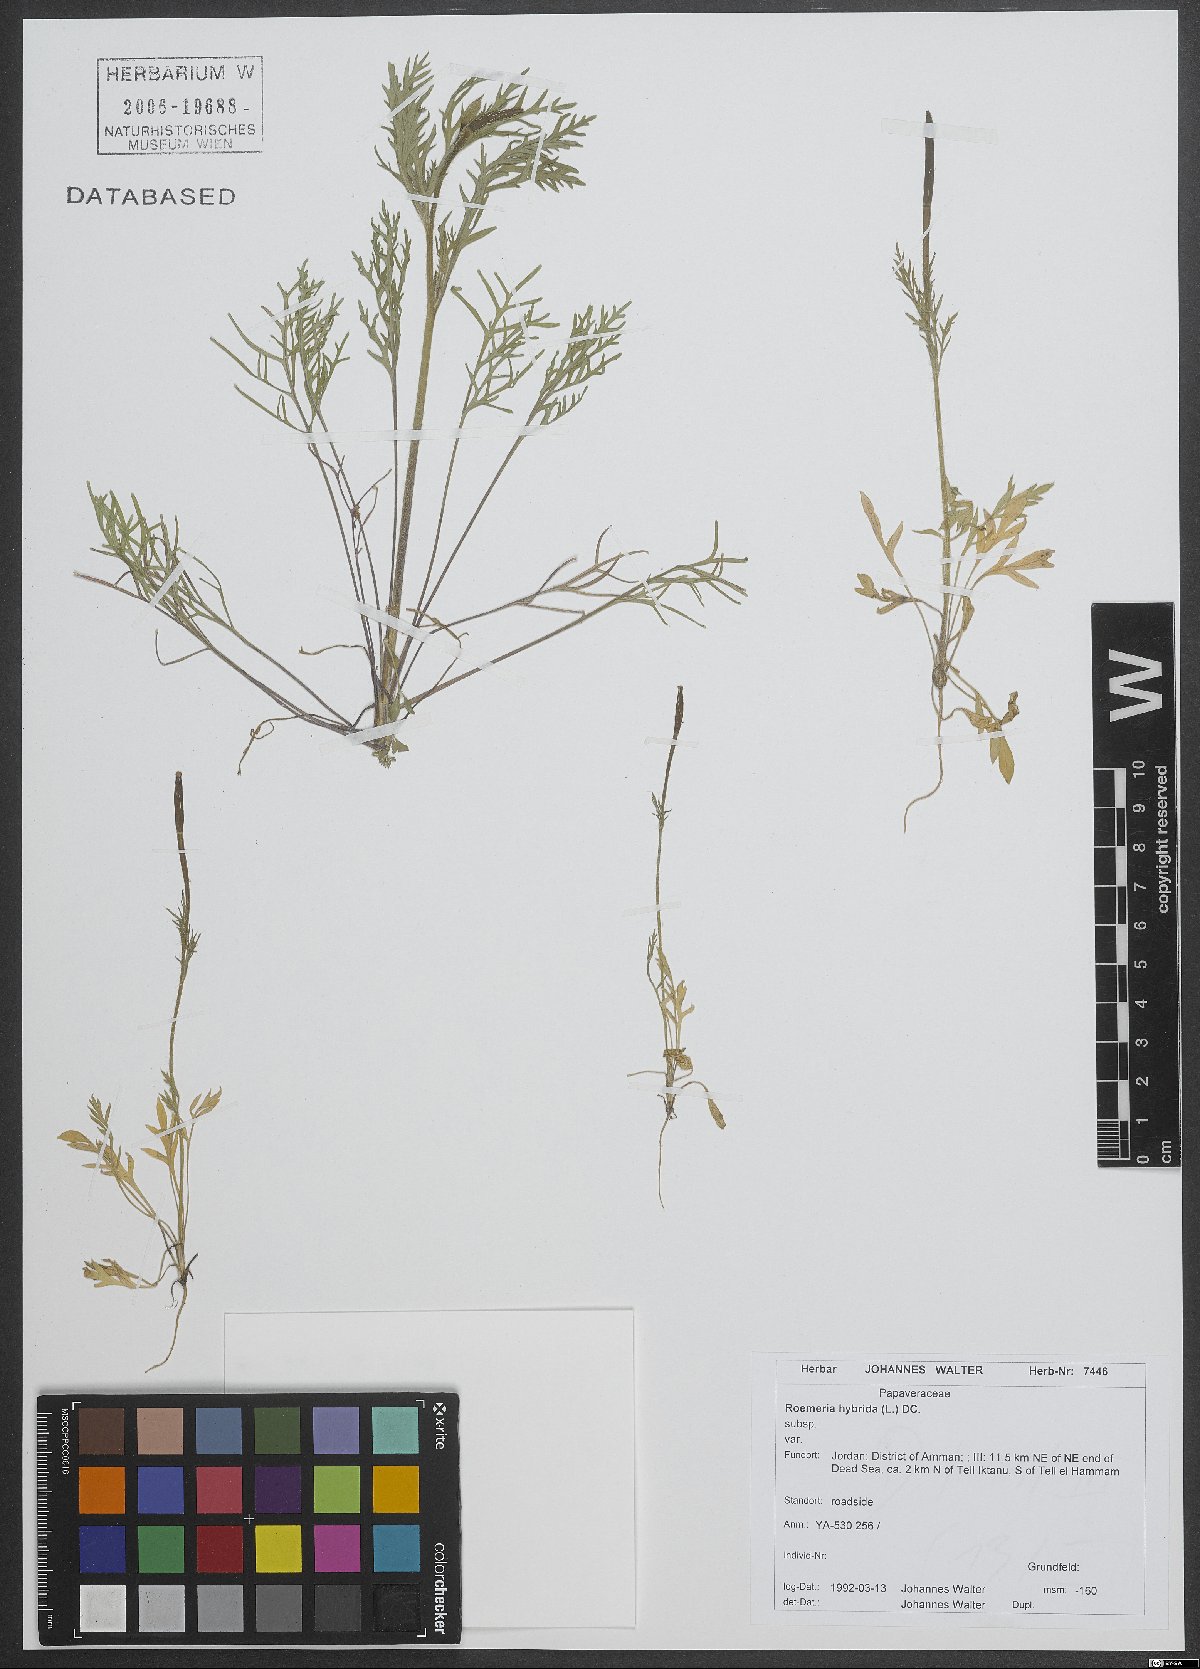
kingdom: Plantae
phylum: Tracheophyta
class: Magnoliopsida
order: Ranunculales
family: Papaveraceae
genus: Roemeria
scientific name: Roemeria hybrida
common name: Violet horned-poppy
